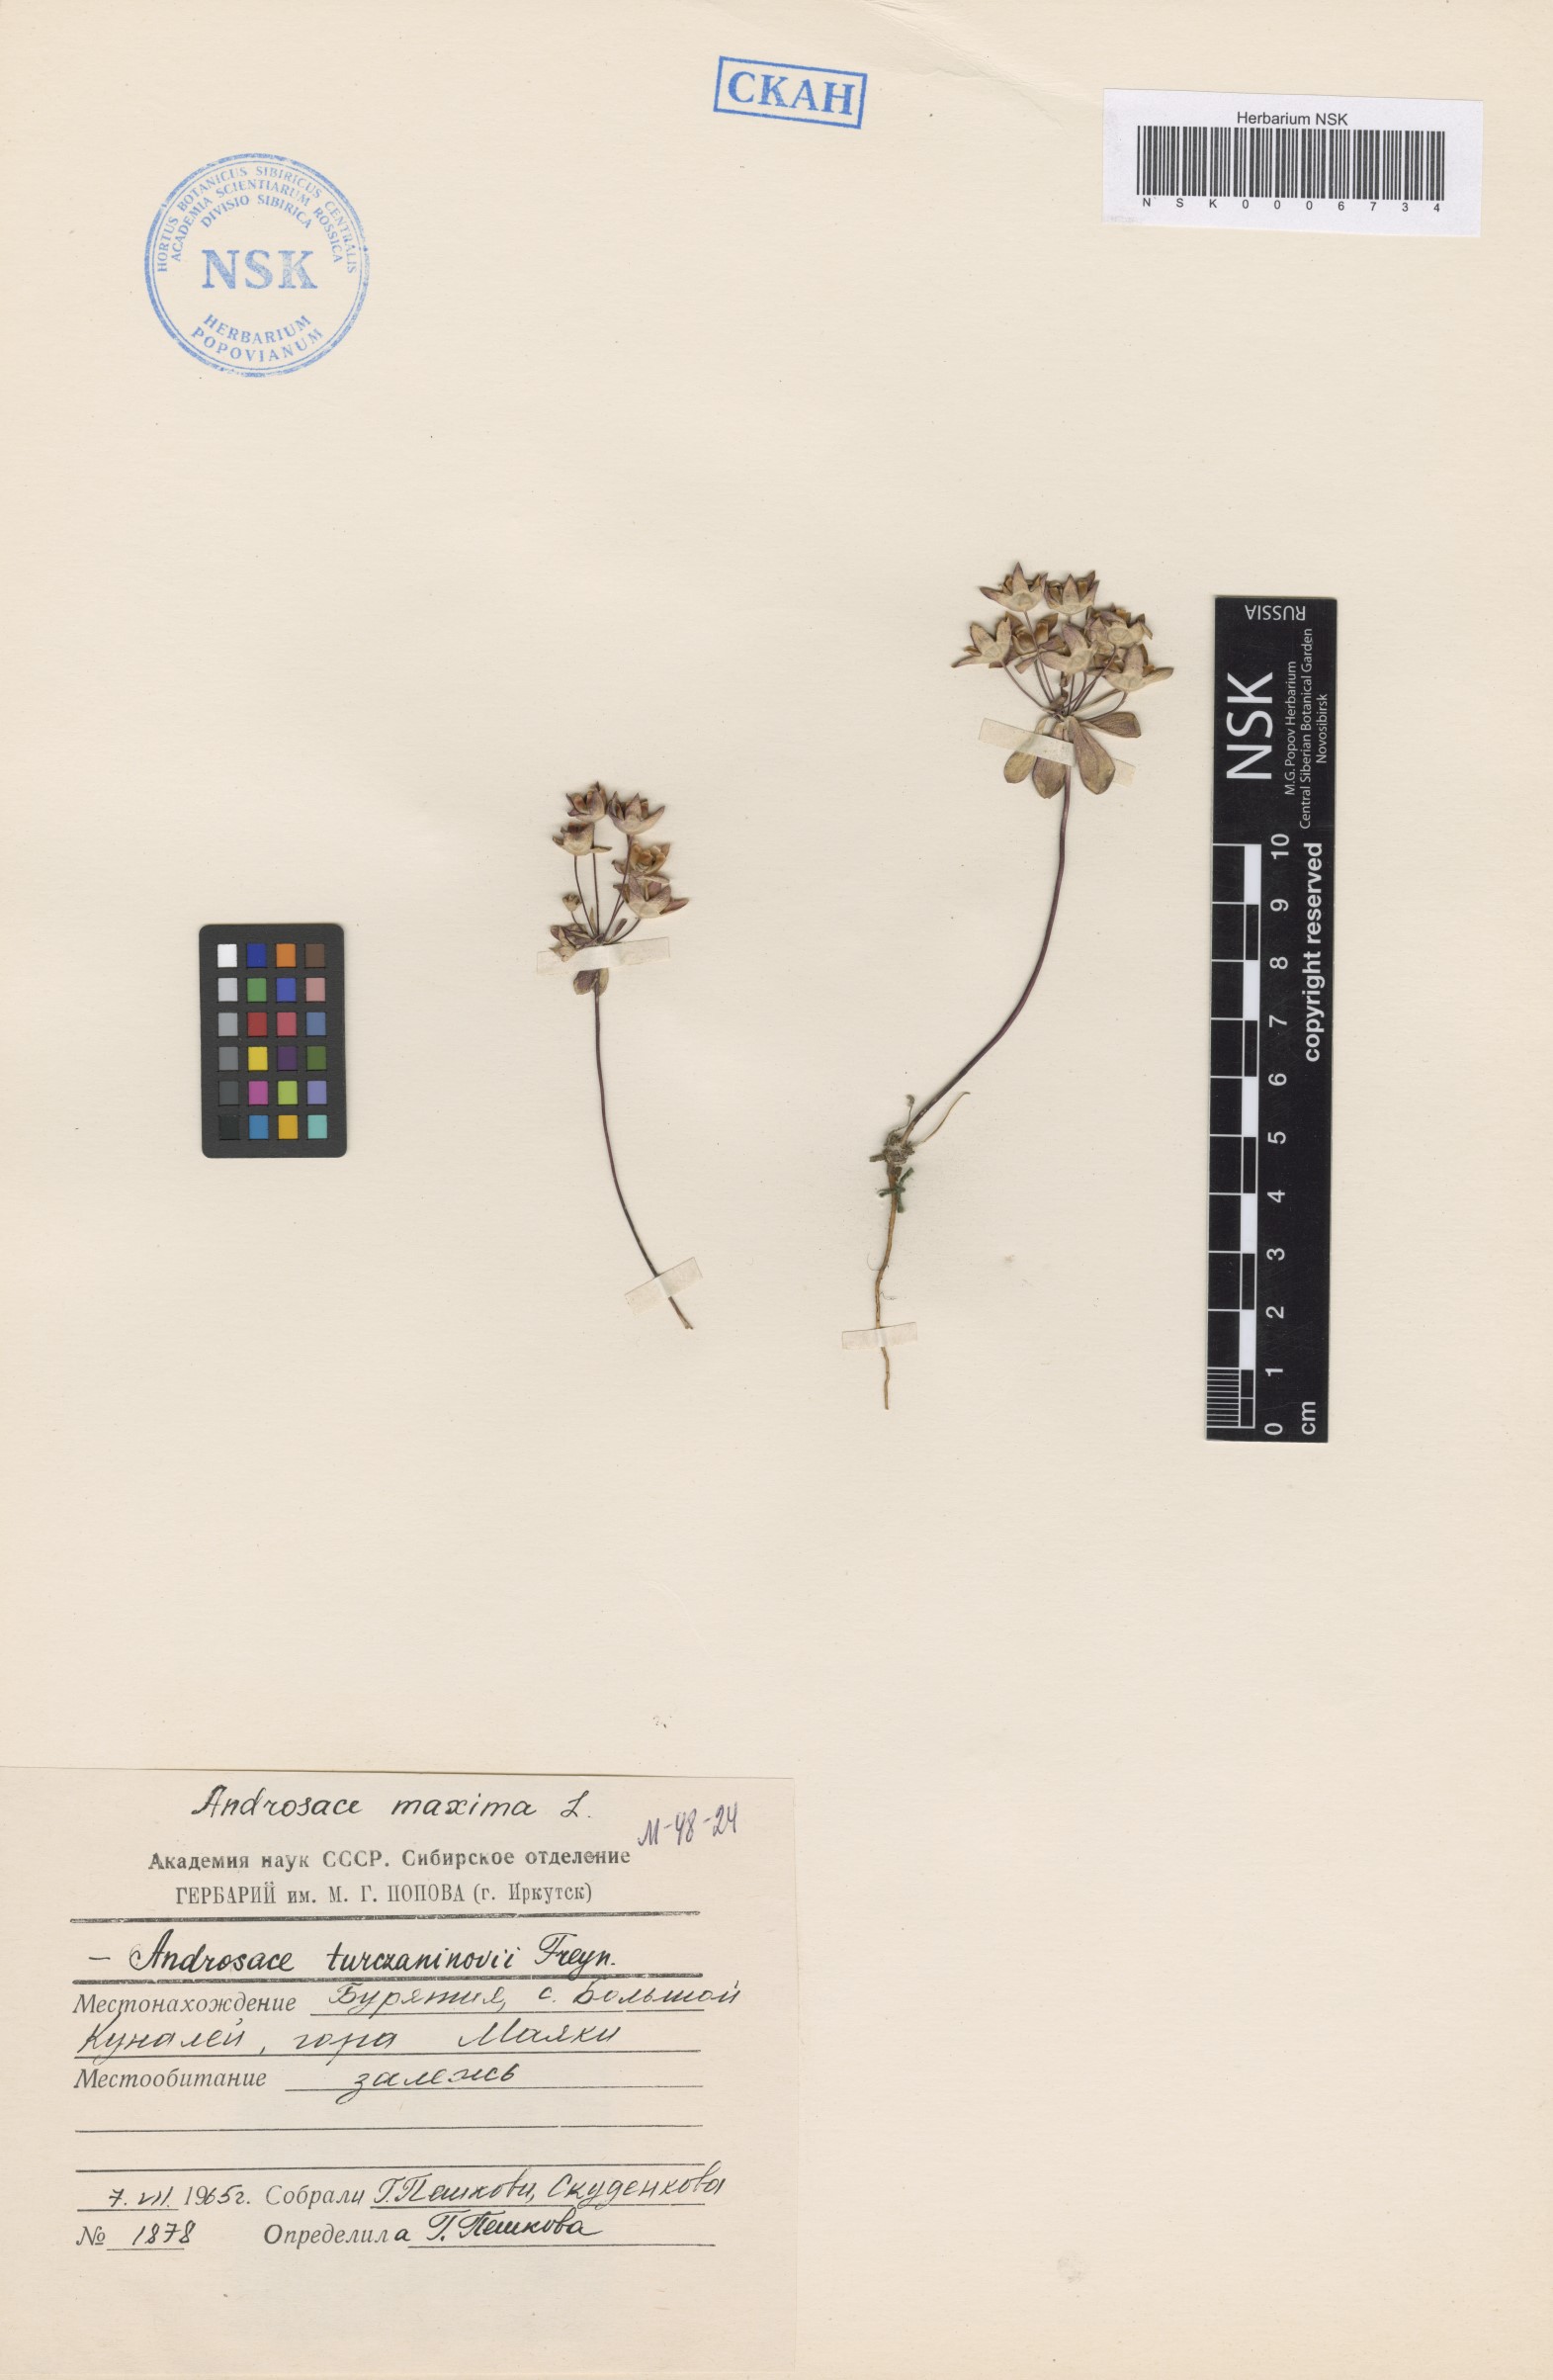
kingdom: Plantae
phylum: Tracheophyta
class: Magnoliopsida
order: Ericales
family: Primulaceae
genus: Androsace
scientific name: Androsace maxima
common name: Annual androsace
